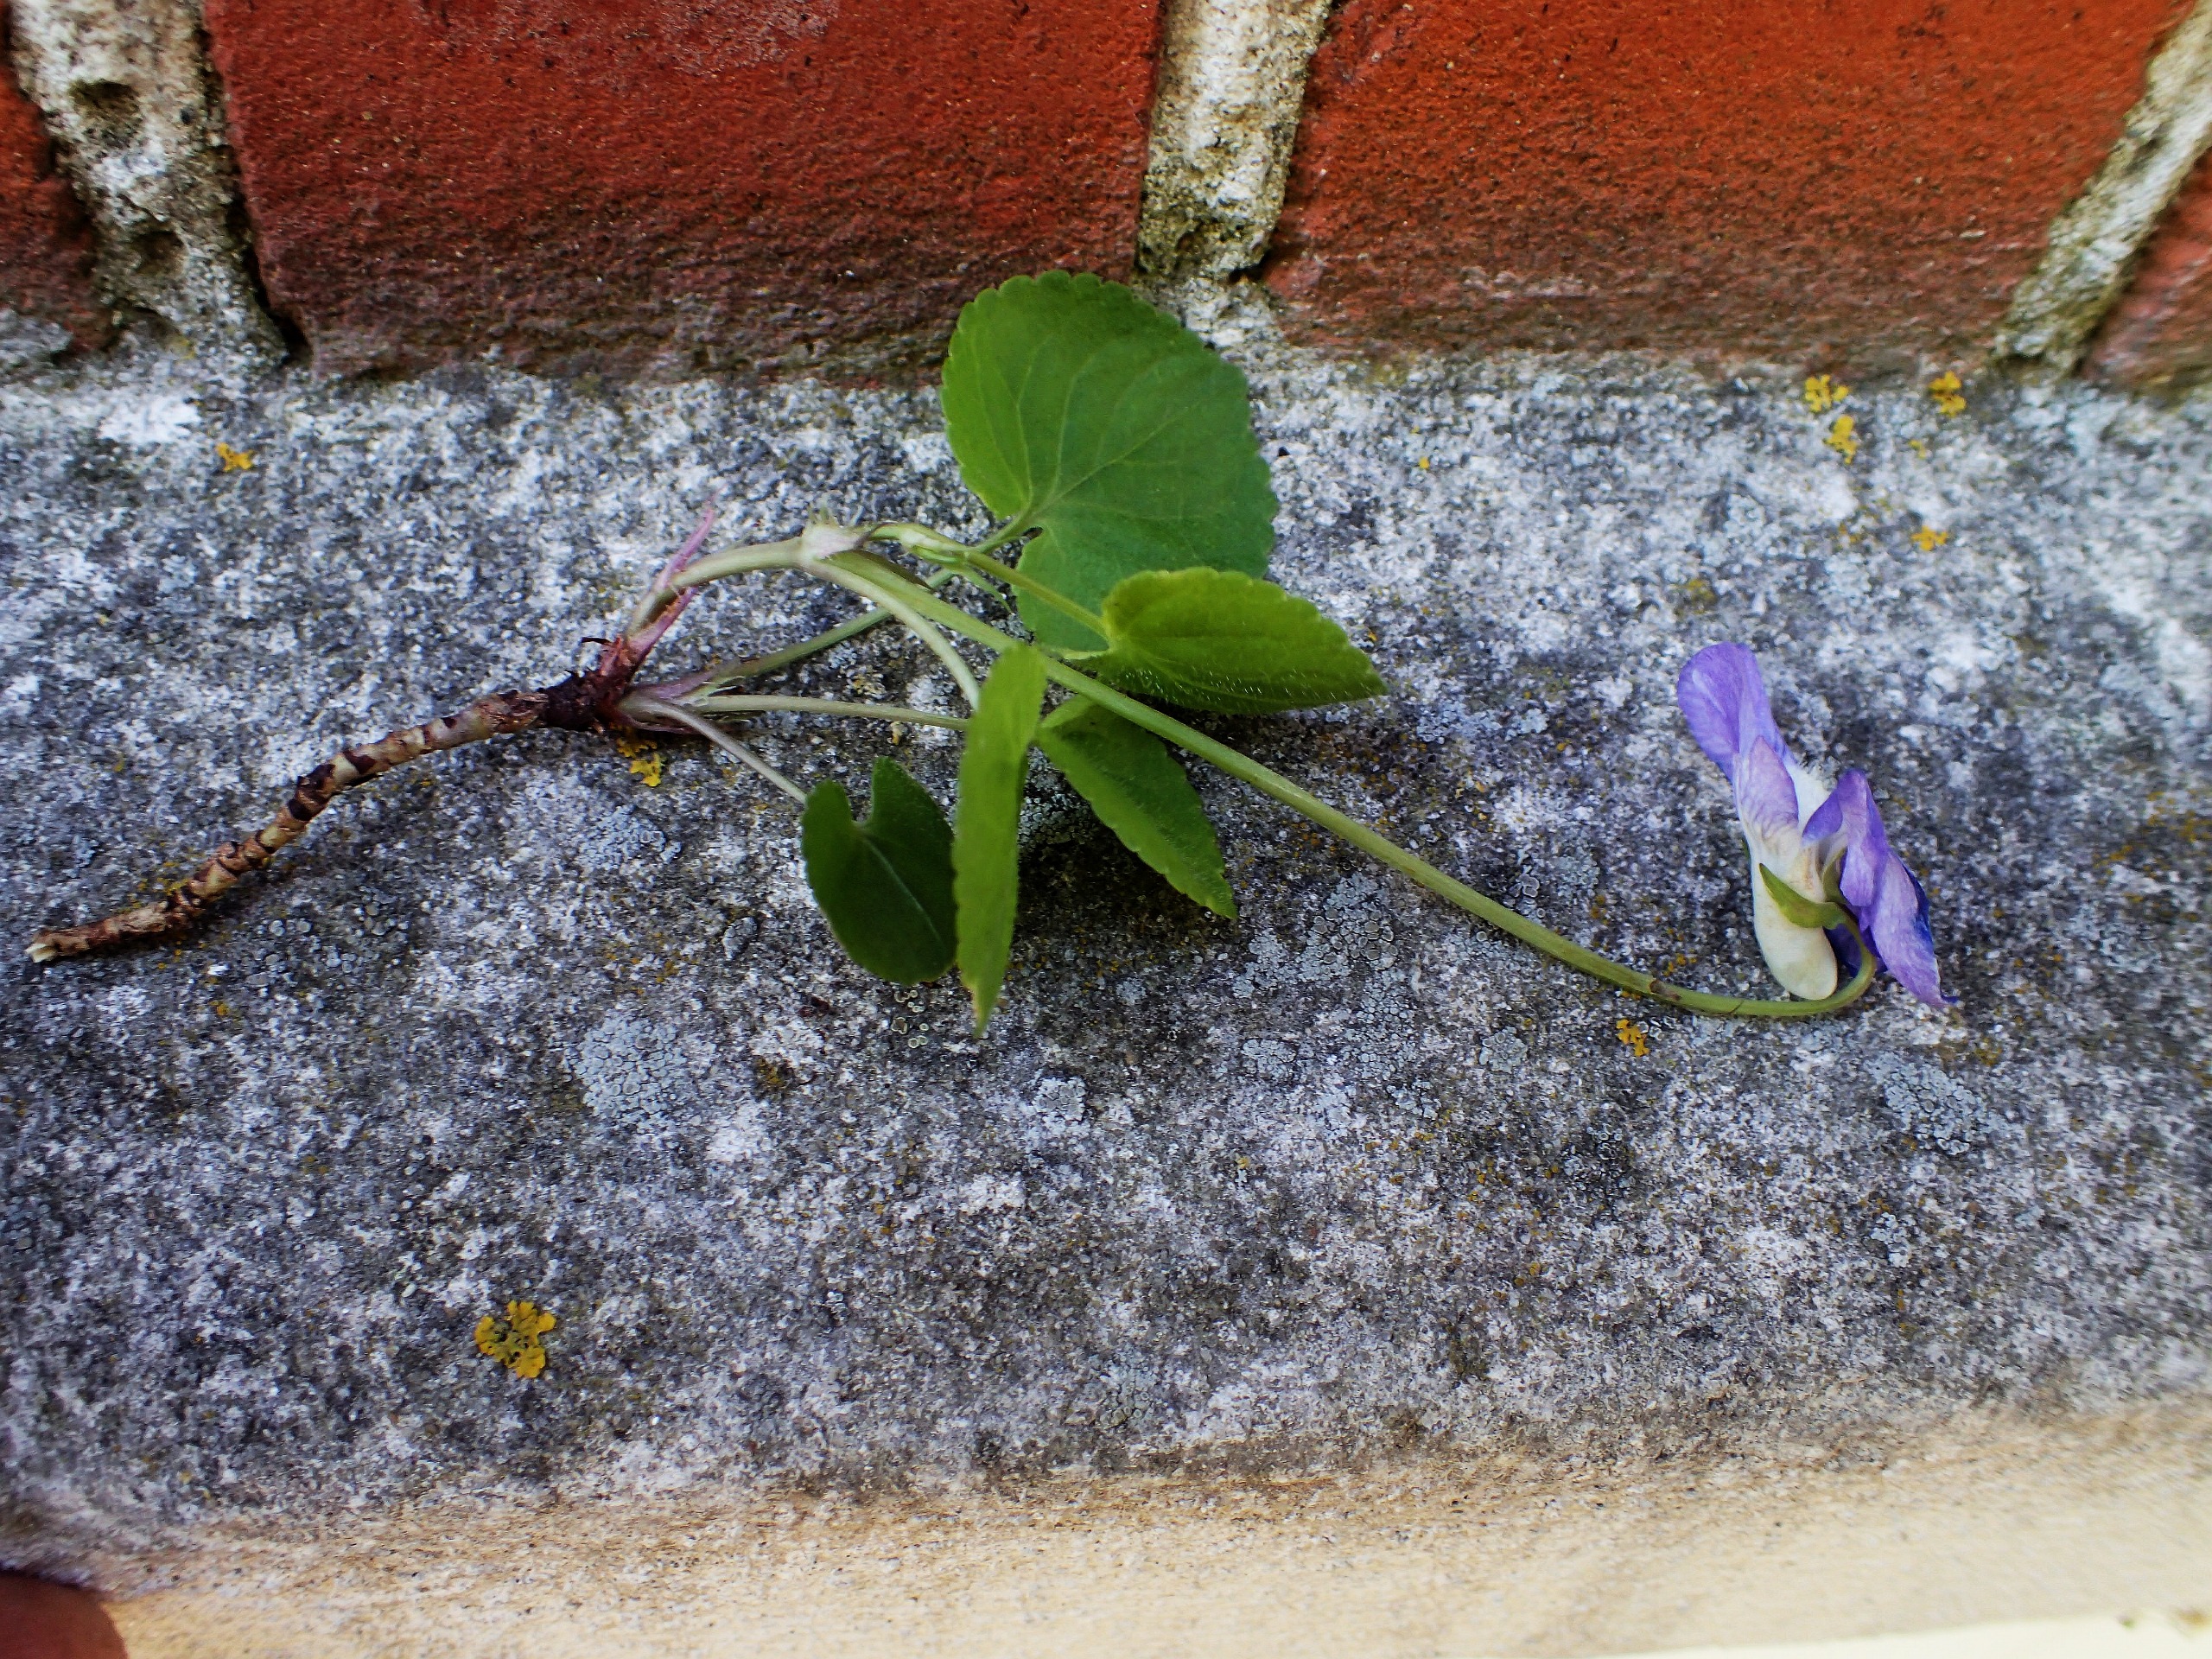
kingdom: Plantae
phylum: Tracheophyta
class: Magnoliopsida
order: Malpighiales
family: Violaceae
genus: Viola
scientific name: Viola riviniana
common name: Krat-viol
